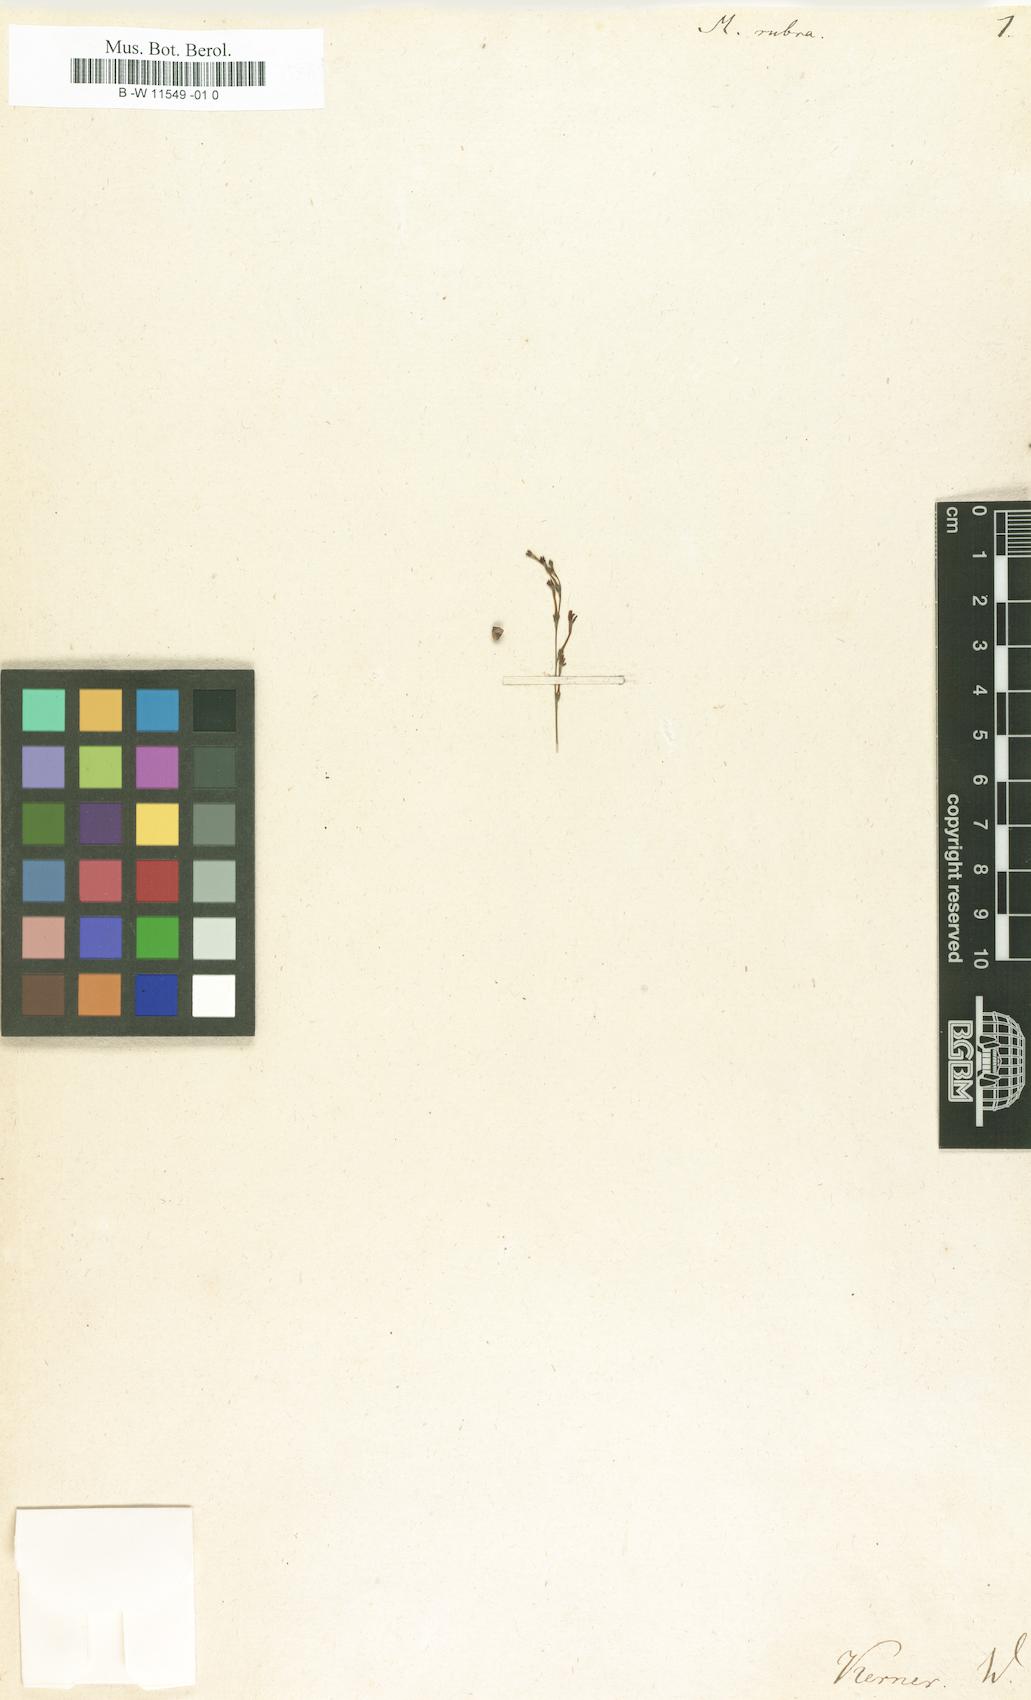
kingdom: Plantae
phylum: Tracheophyta
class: Magnoliopsida
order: Lamiales
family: Scrophulariaceae
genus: Manulea
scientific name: Manulea rubra
